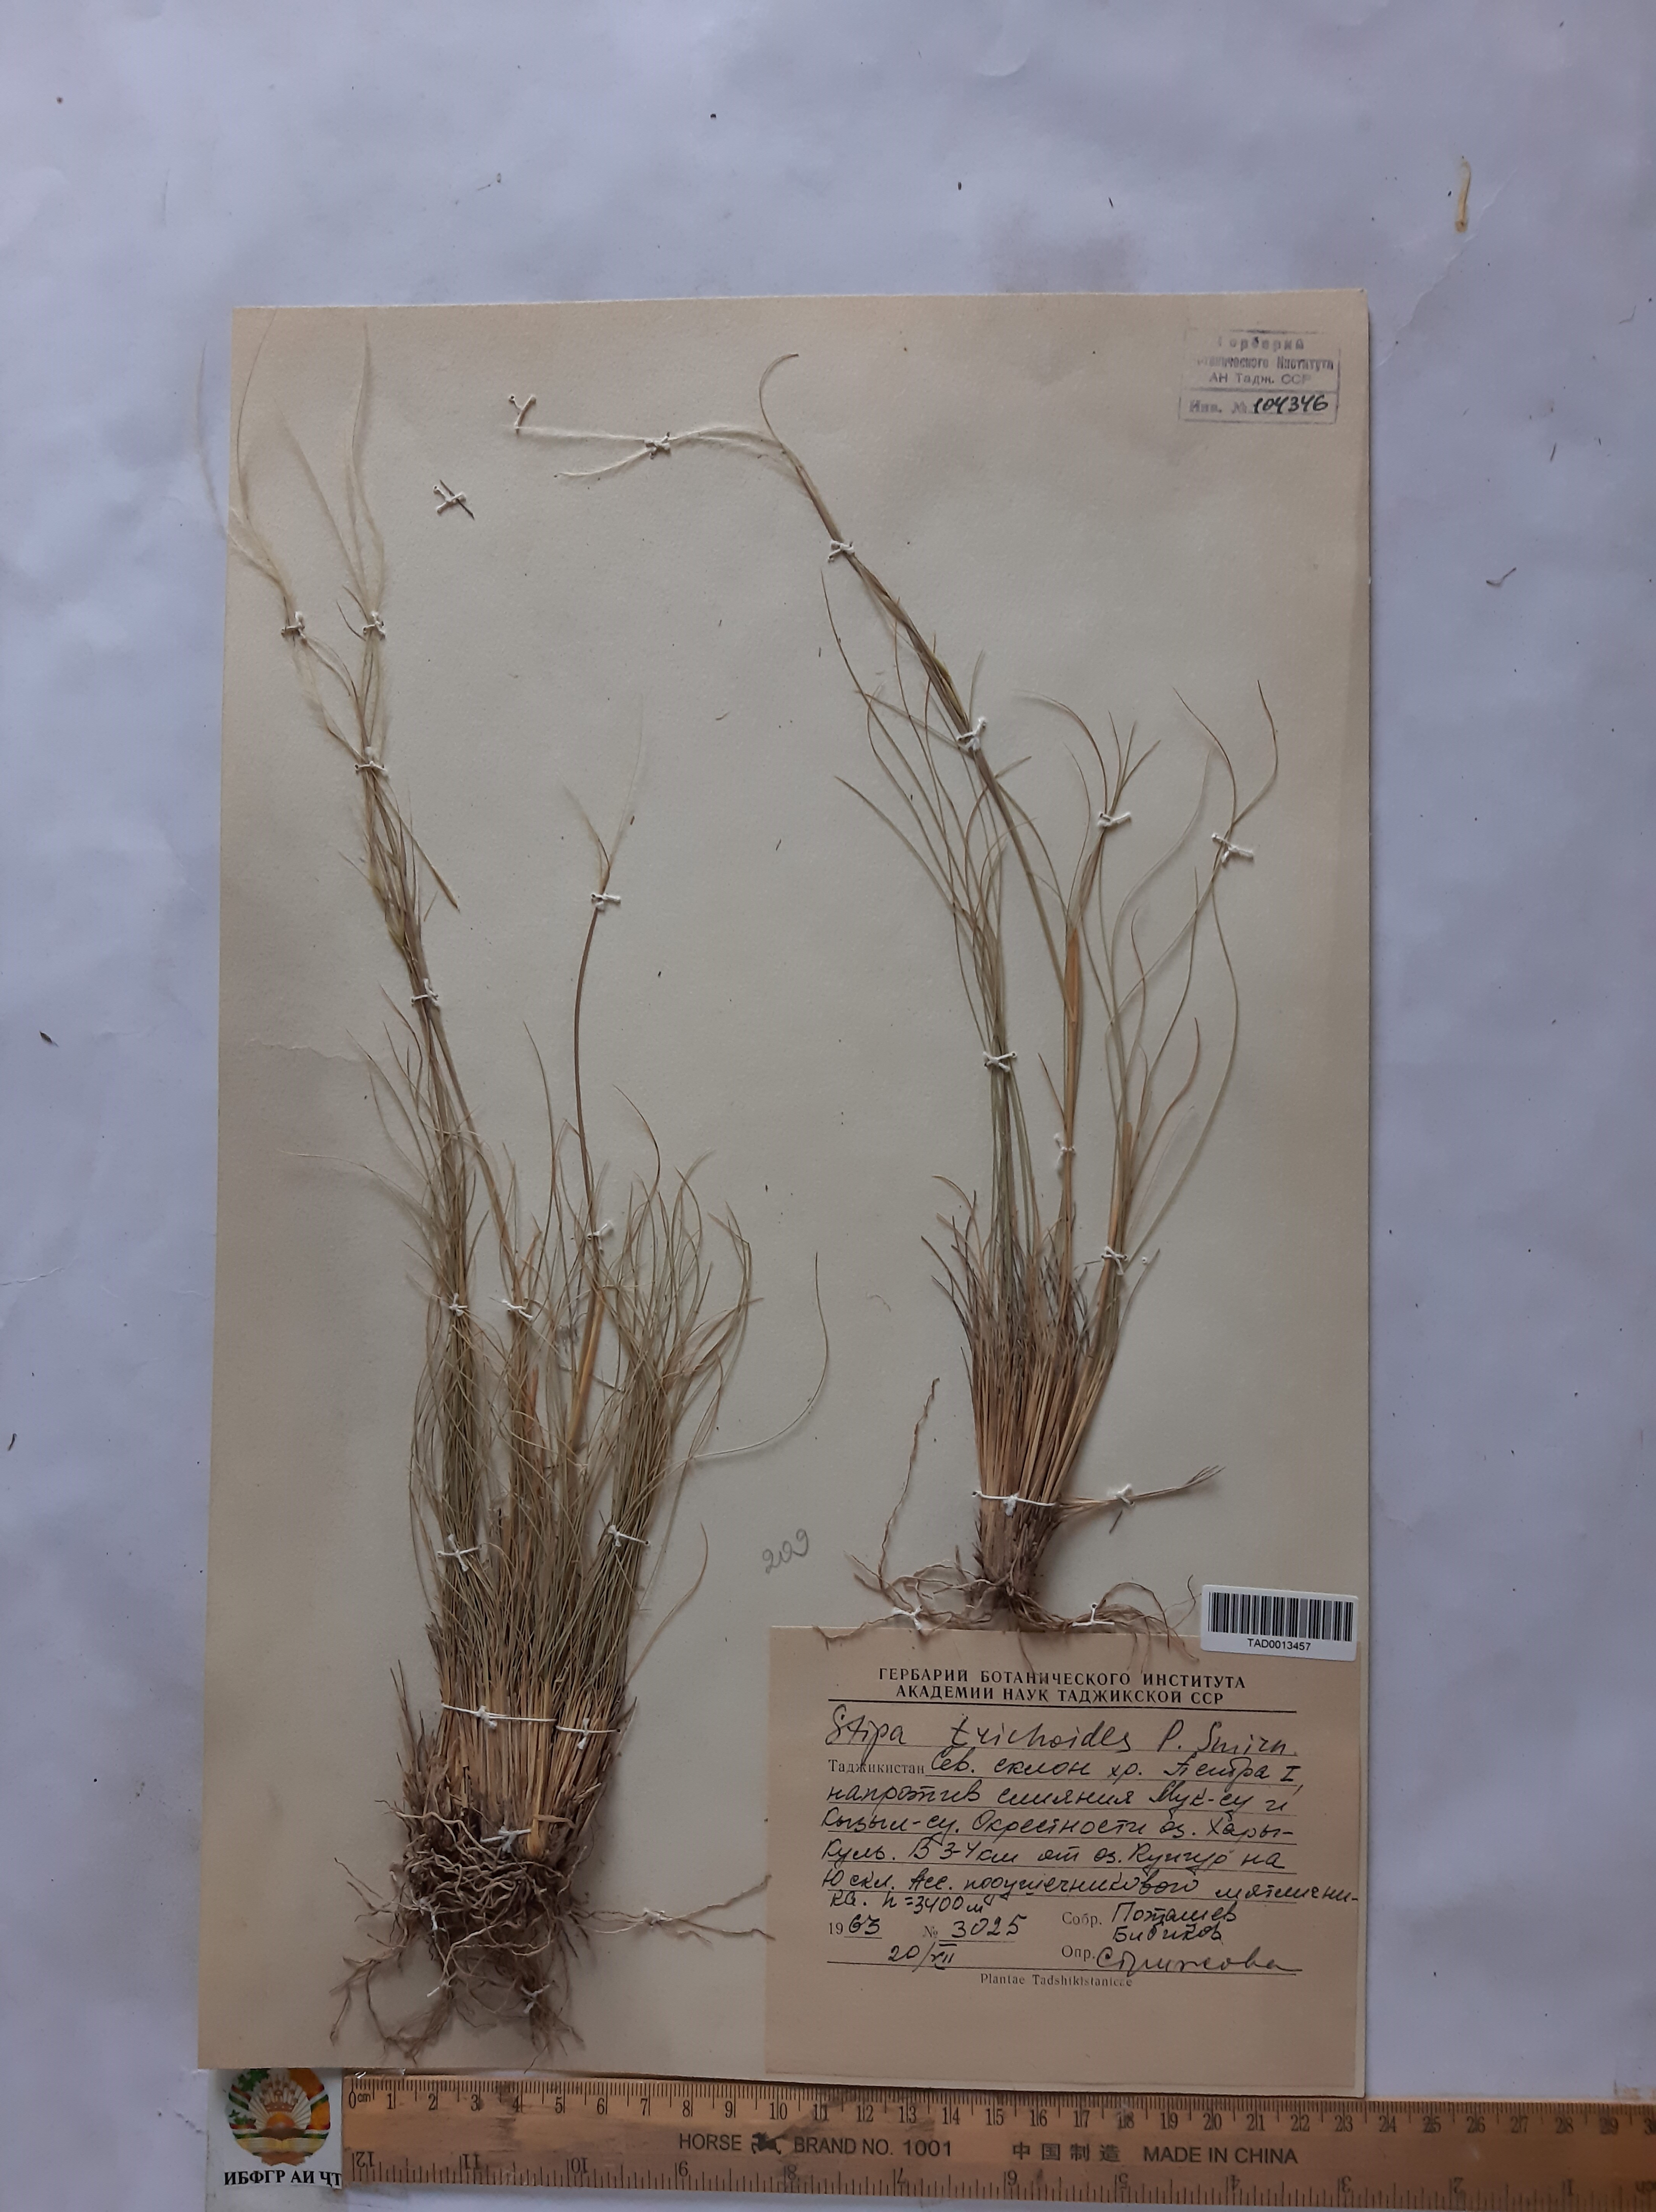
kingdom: Plantae
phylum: Tracheophyta
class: Liliopsida
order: Poales
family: Poaceae
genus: Stipa
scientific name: Stipa trichoides
